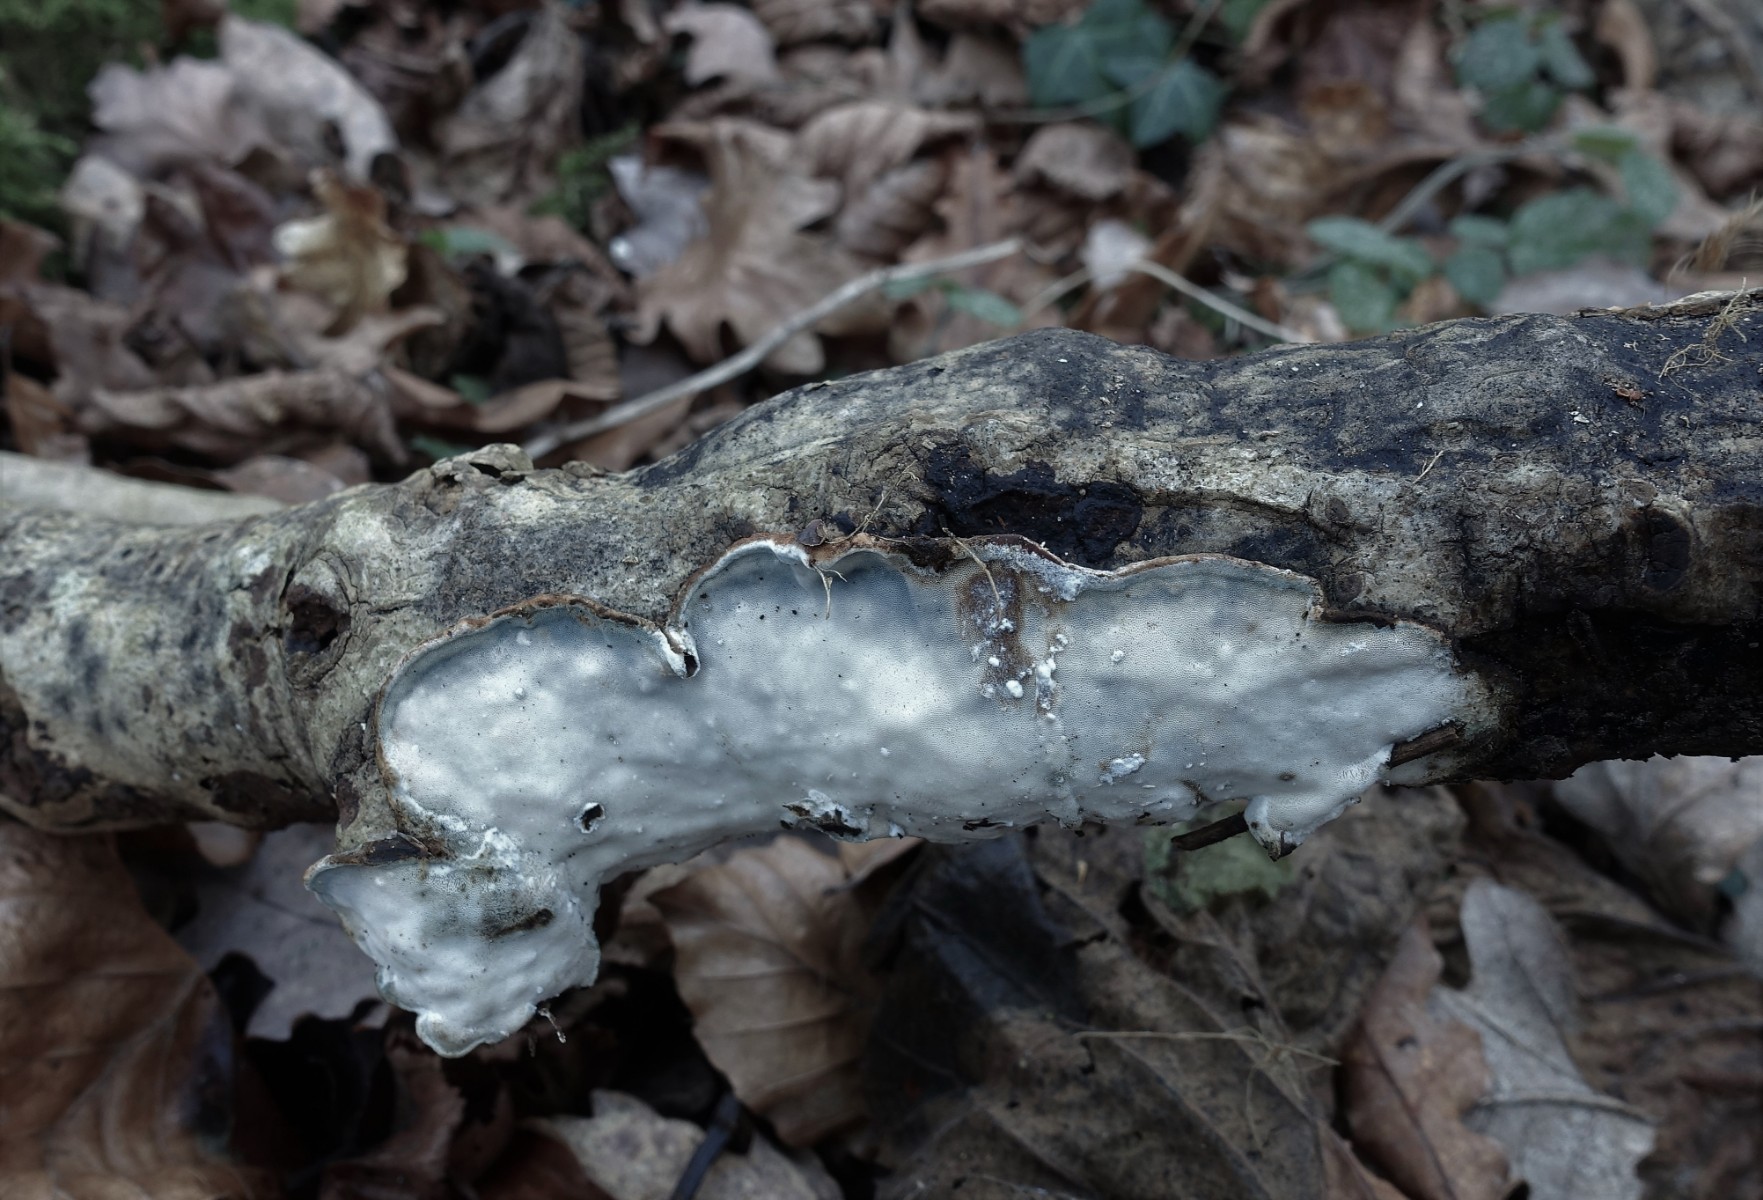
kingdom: Fungi
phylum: Basidiomycota
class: Agaricomycetes
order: Polyporales
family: Incrustoporiaceae
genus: Skeletocutis
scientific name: Skeletocutis nemoralis
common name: stor krystalporesvamp
